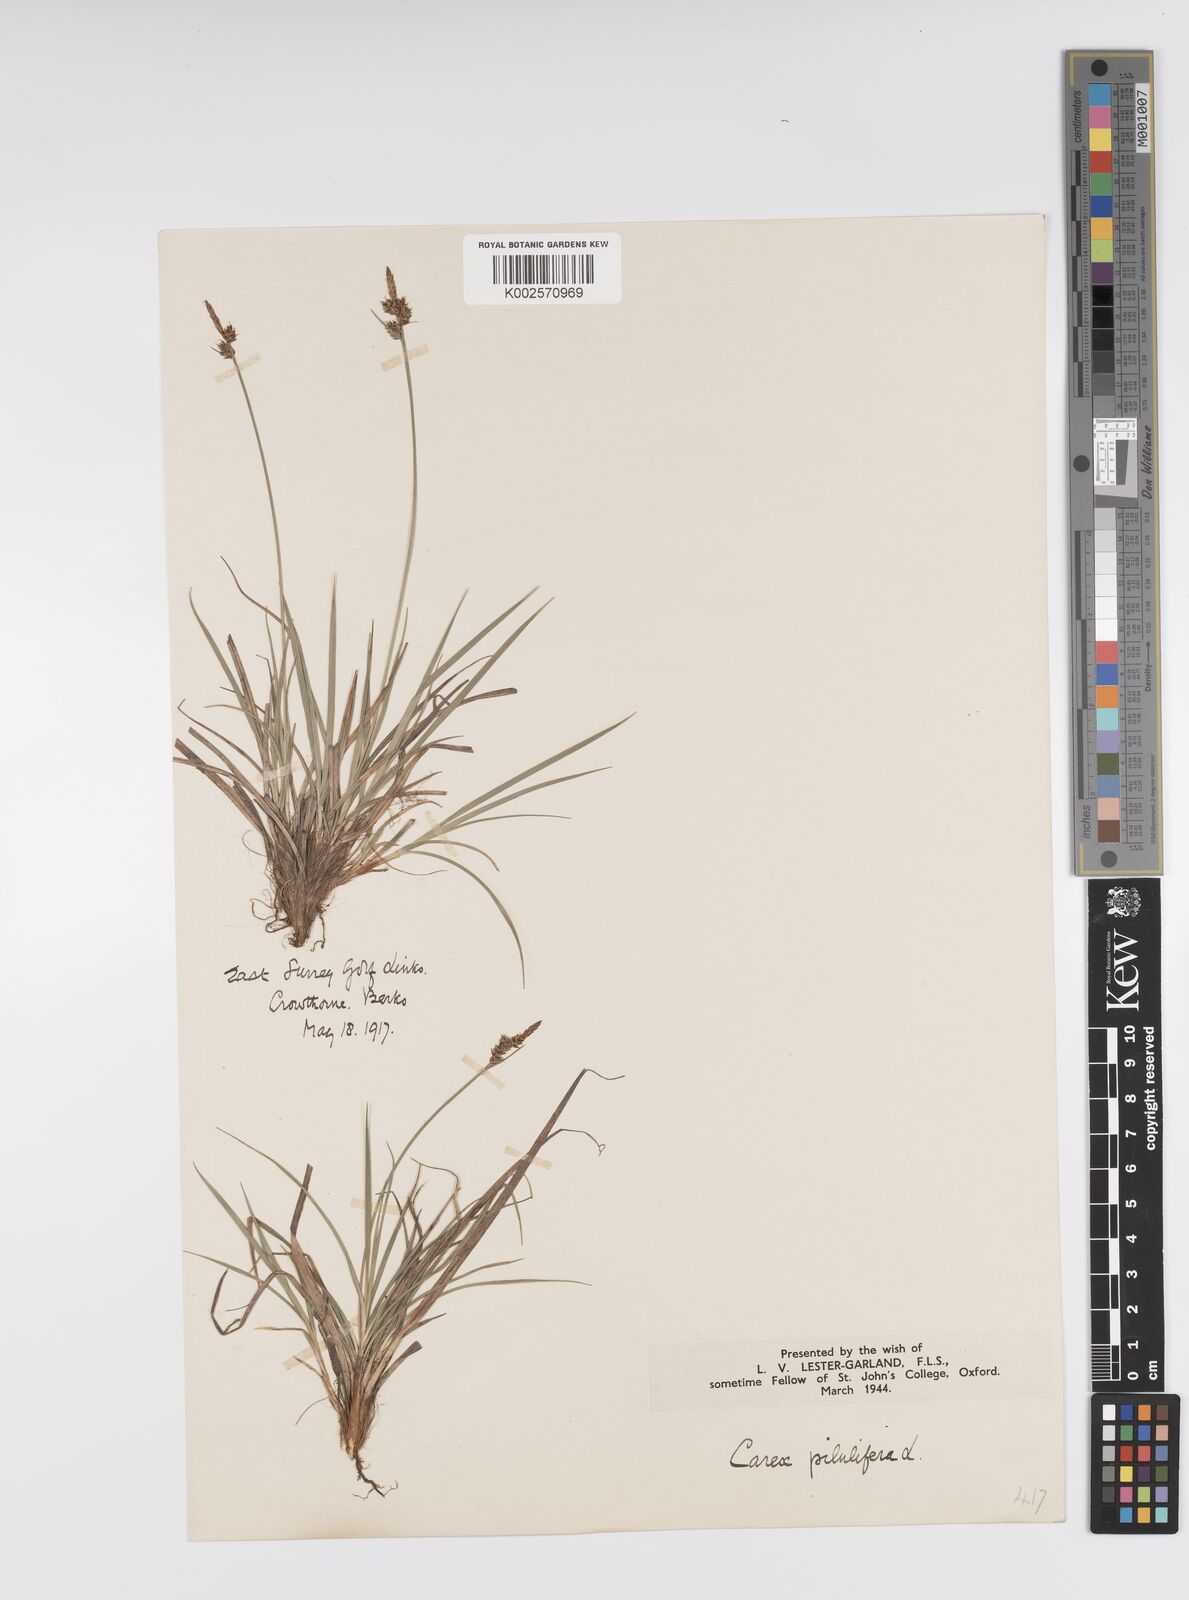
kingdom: Plantae
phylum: Tracheophyta
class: Liliopsida
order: Poales
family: Cyperaceae
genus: Carex
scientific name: Carex pilulifera
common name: Pill sedge
